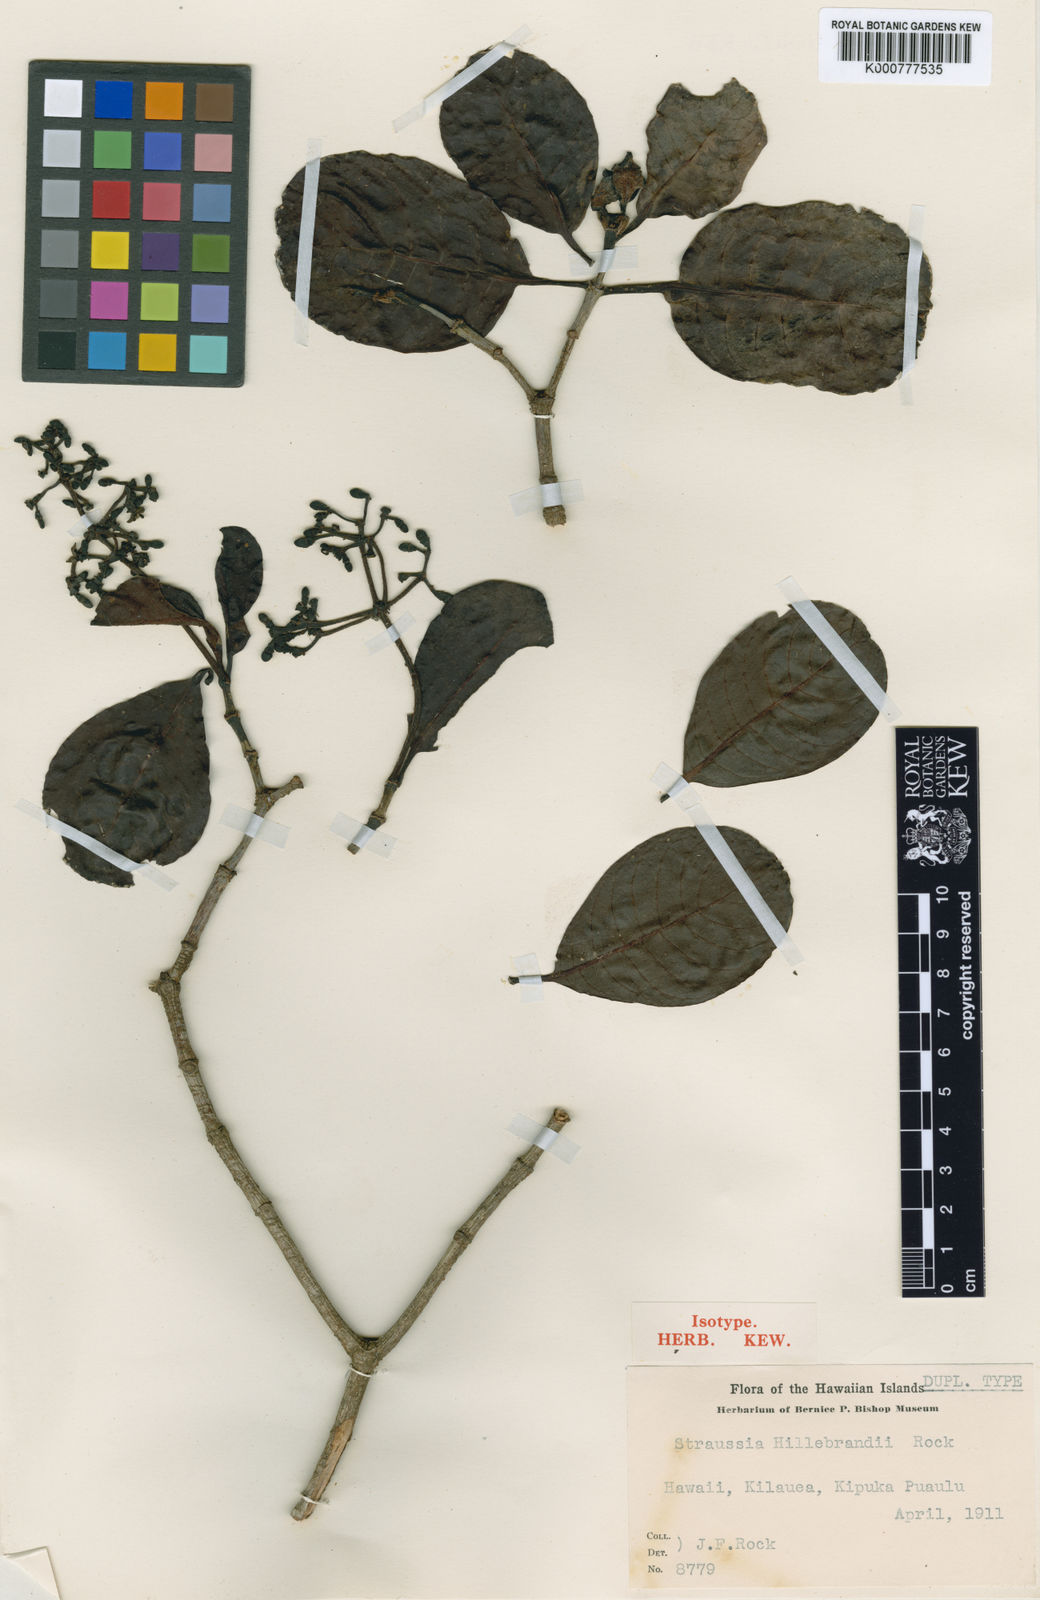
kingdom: Plantae
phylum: Tracheophyta
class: Magnoliopsida
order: Gentianales
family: Rubiaceae
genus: Psychotria
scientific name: Psychotria hawaiiensis
